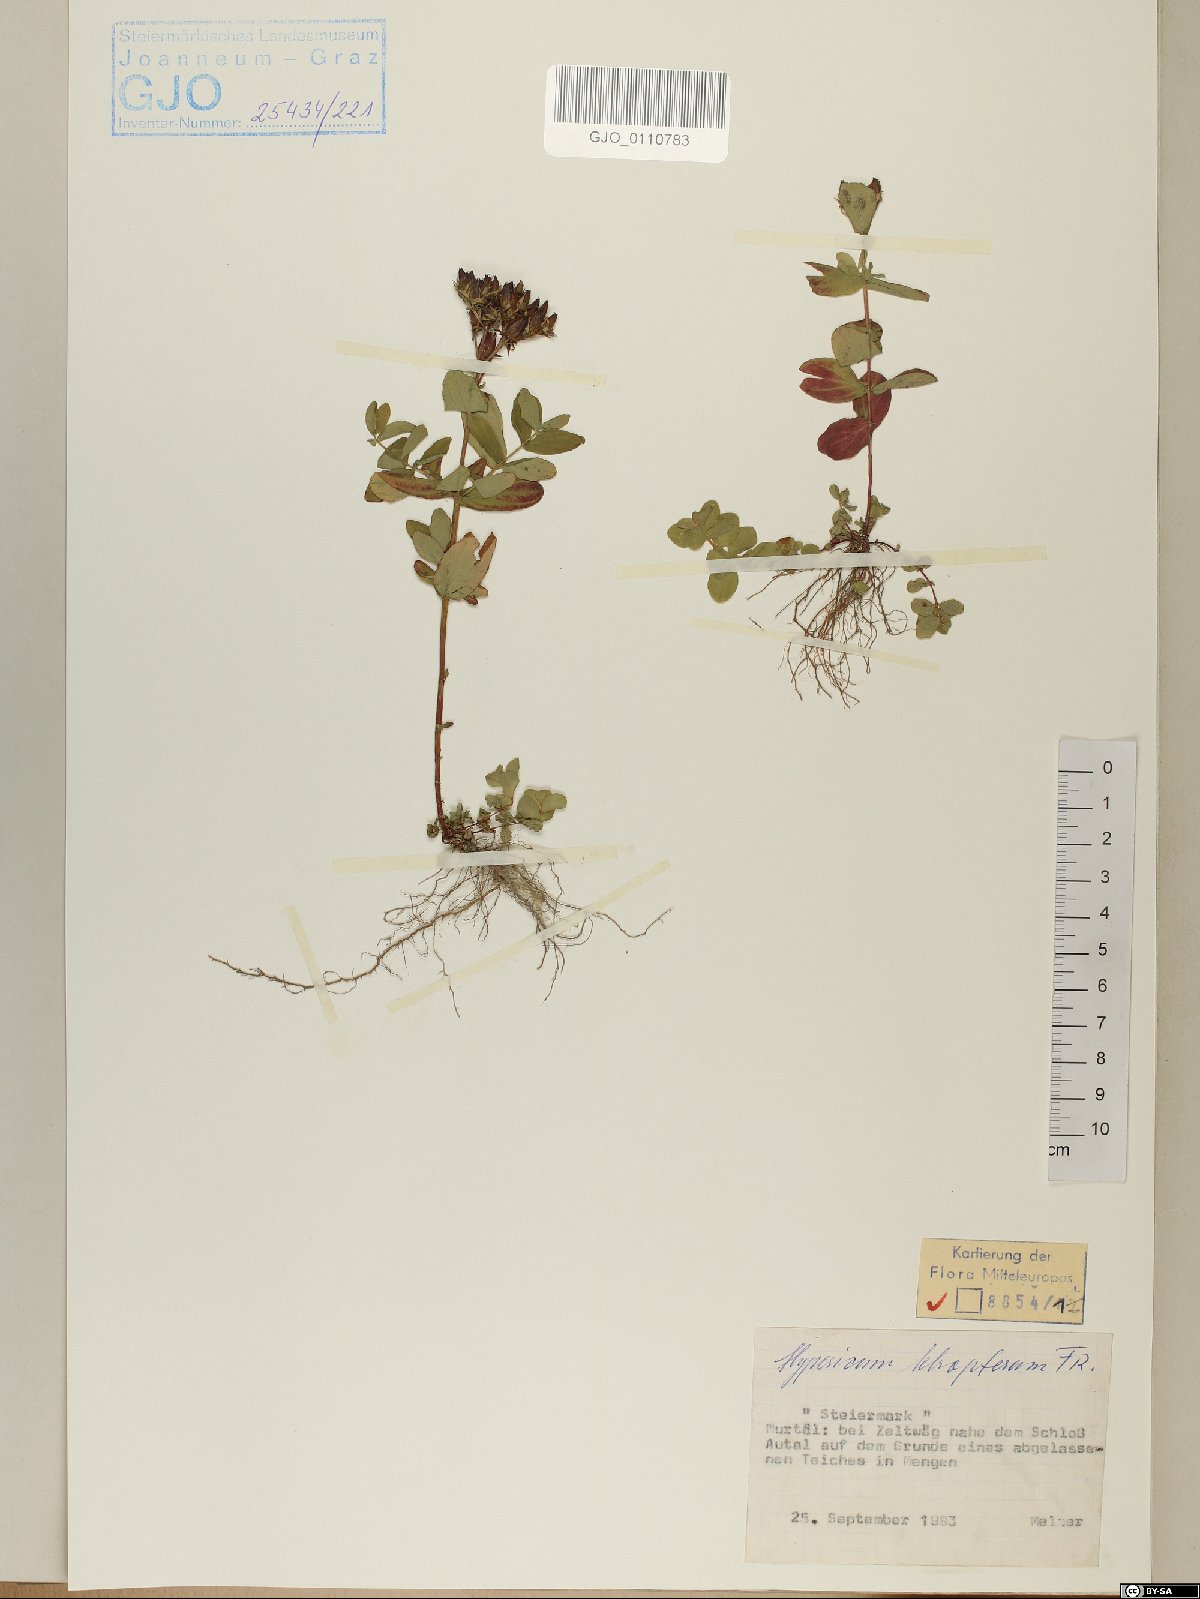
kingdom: Plantae
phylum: Tracheophyta
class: Magnoliopsida
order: Malpighiales
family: Hypericaceae
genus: Hypericum
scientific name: Hypericum tetrapterum
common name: Square-stalked st. john's-wort
